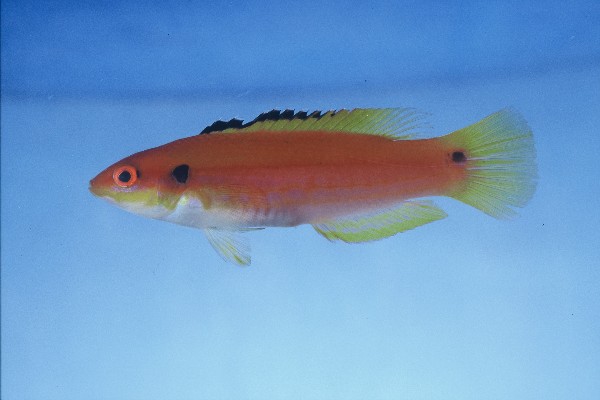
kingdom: Animalia
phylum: Chordata
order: Perciformes
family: Labridae
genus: Bodianus
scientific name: Bodianus bimaculatus
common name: Two-spot slender hogfish
